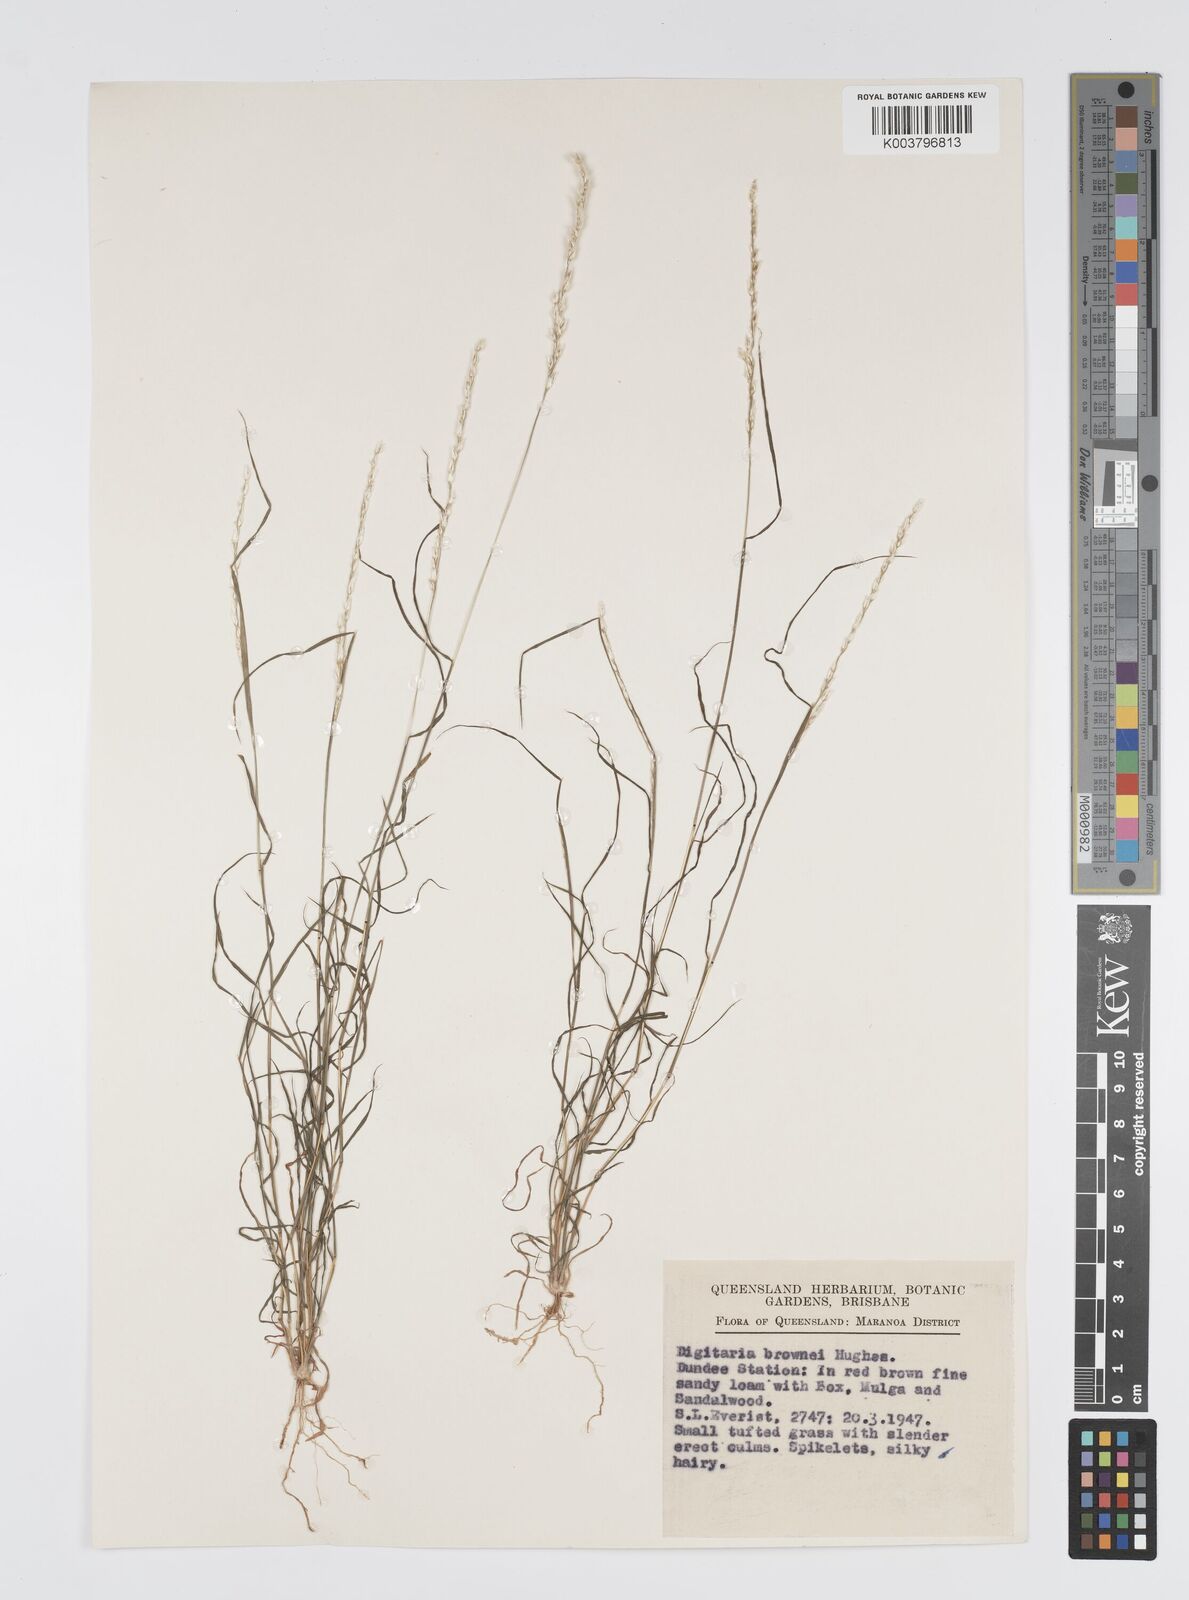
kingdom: Plantae
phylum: Tracheophyta
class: Liliopsida
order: Poales
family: Poaceae
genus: Digitaria
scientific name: Digitaria brownii
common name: Cotton grass
